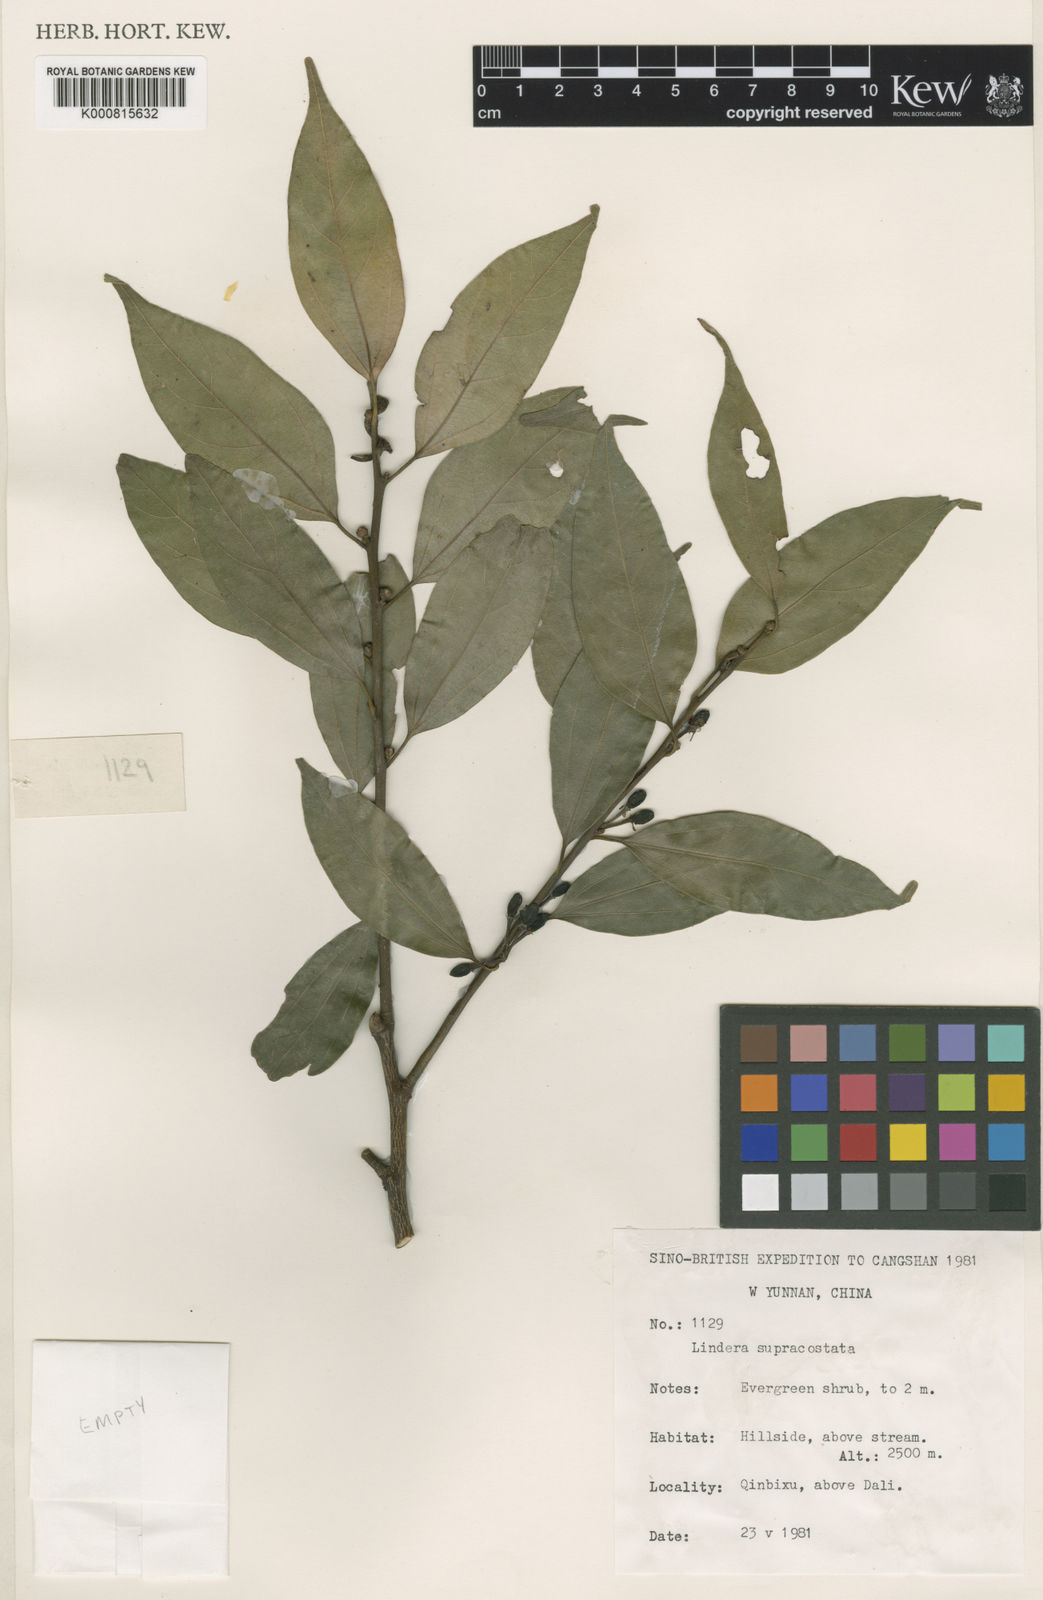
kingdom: Plantae
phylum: Tracheophyta
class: Magnoliopsida
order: Laurales
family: Lauraceae
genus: Lindera
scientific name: Lindera
